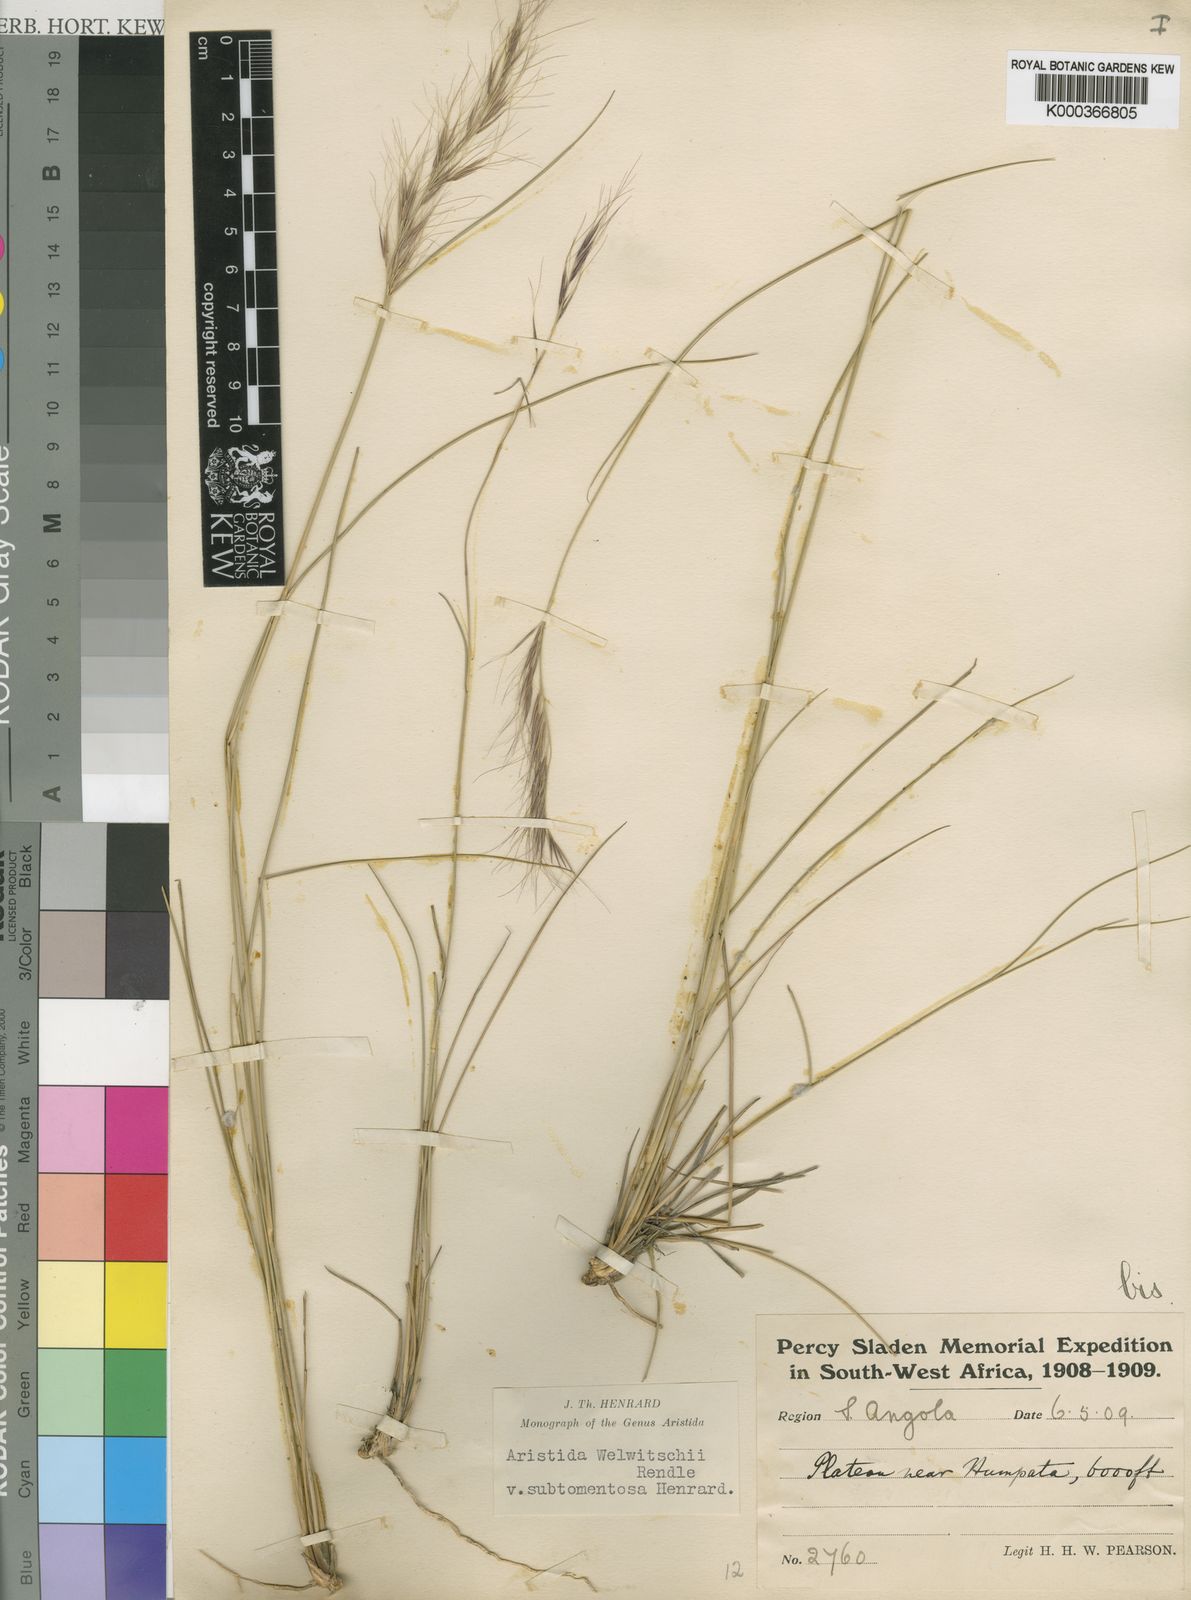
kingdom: Plantae
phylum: Tracheophyta
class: Liliopsida
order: Poales
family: Poaceae
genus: Aristida
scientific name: Aristida leucophaea
